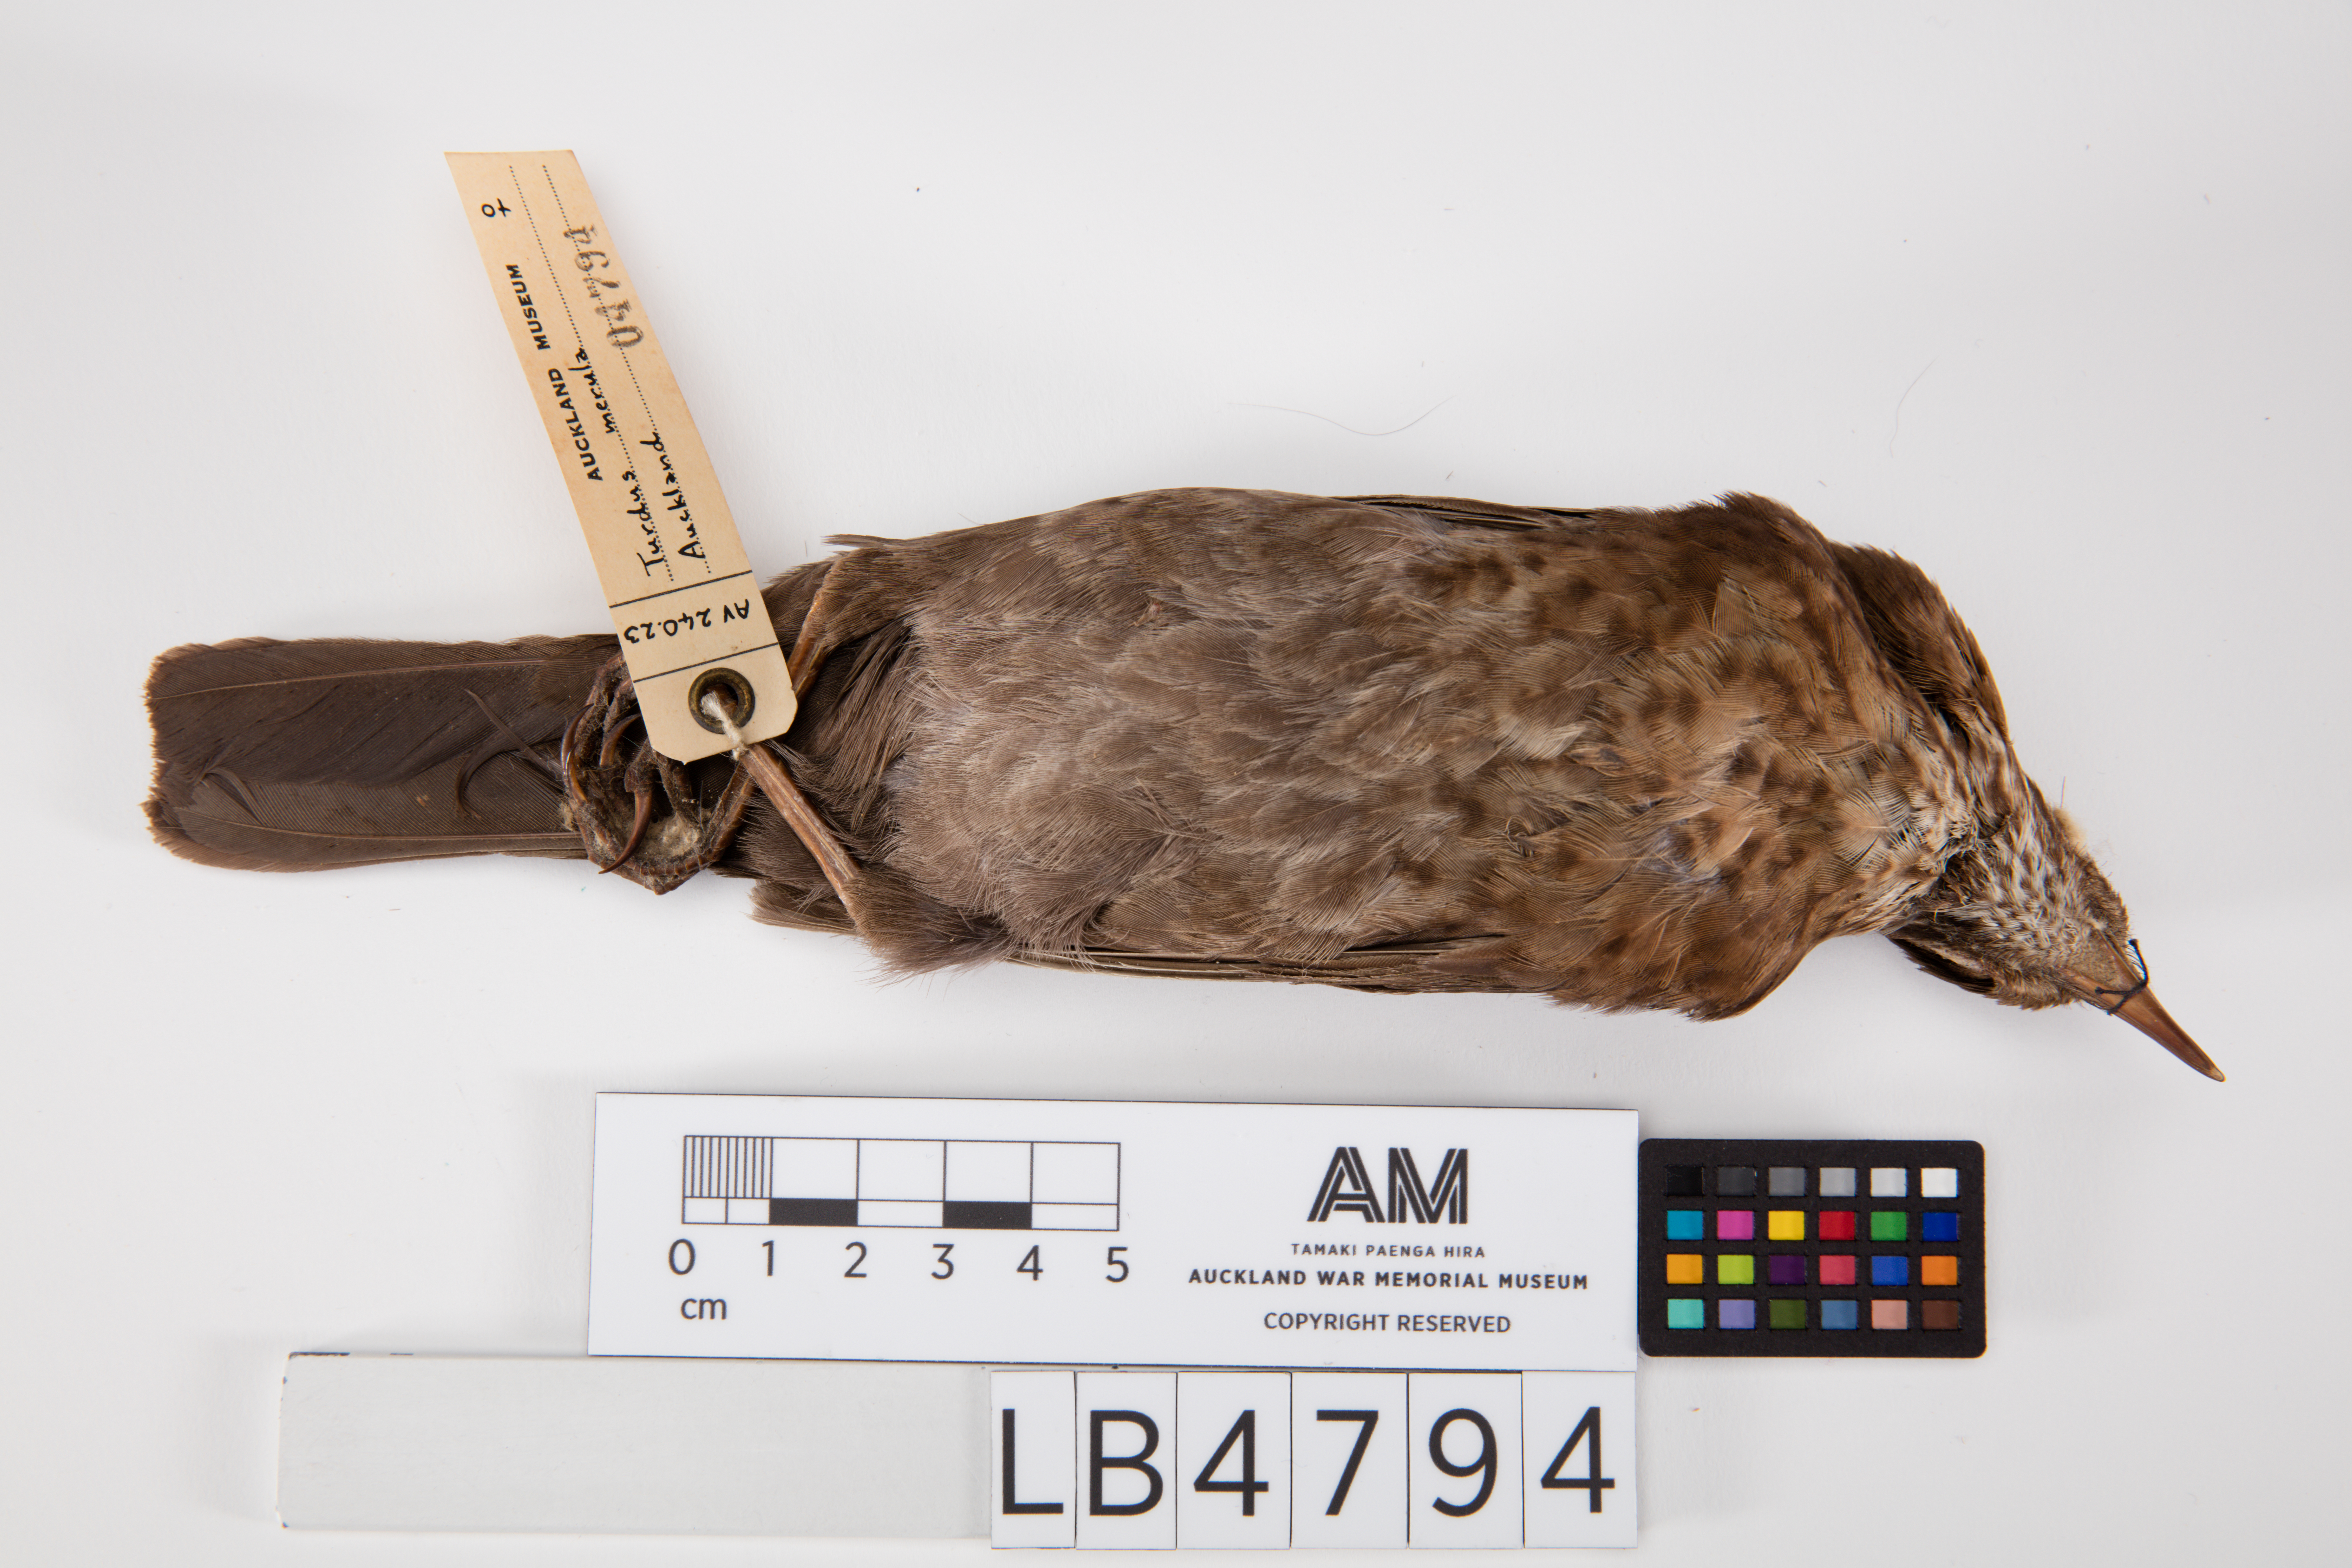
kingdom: Animalia
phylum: Chordata
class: Aves
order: Passeriformes
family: Turdidae
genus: Turdus
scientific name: Turdus merula
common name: Common blackbird
